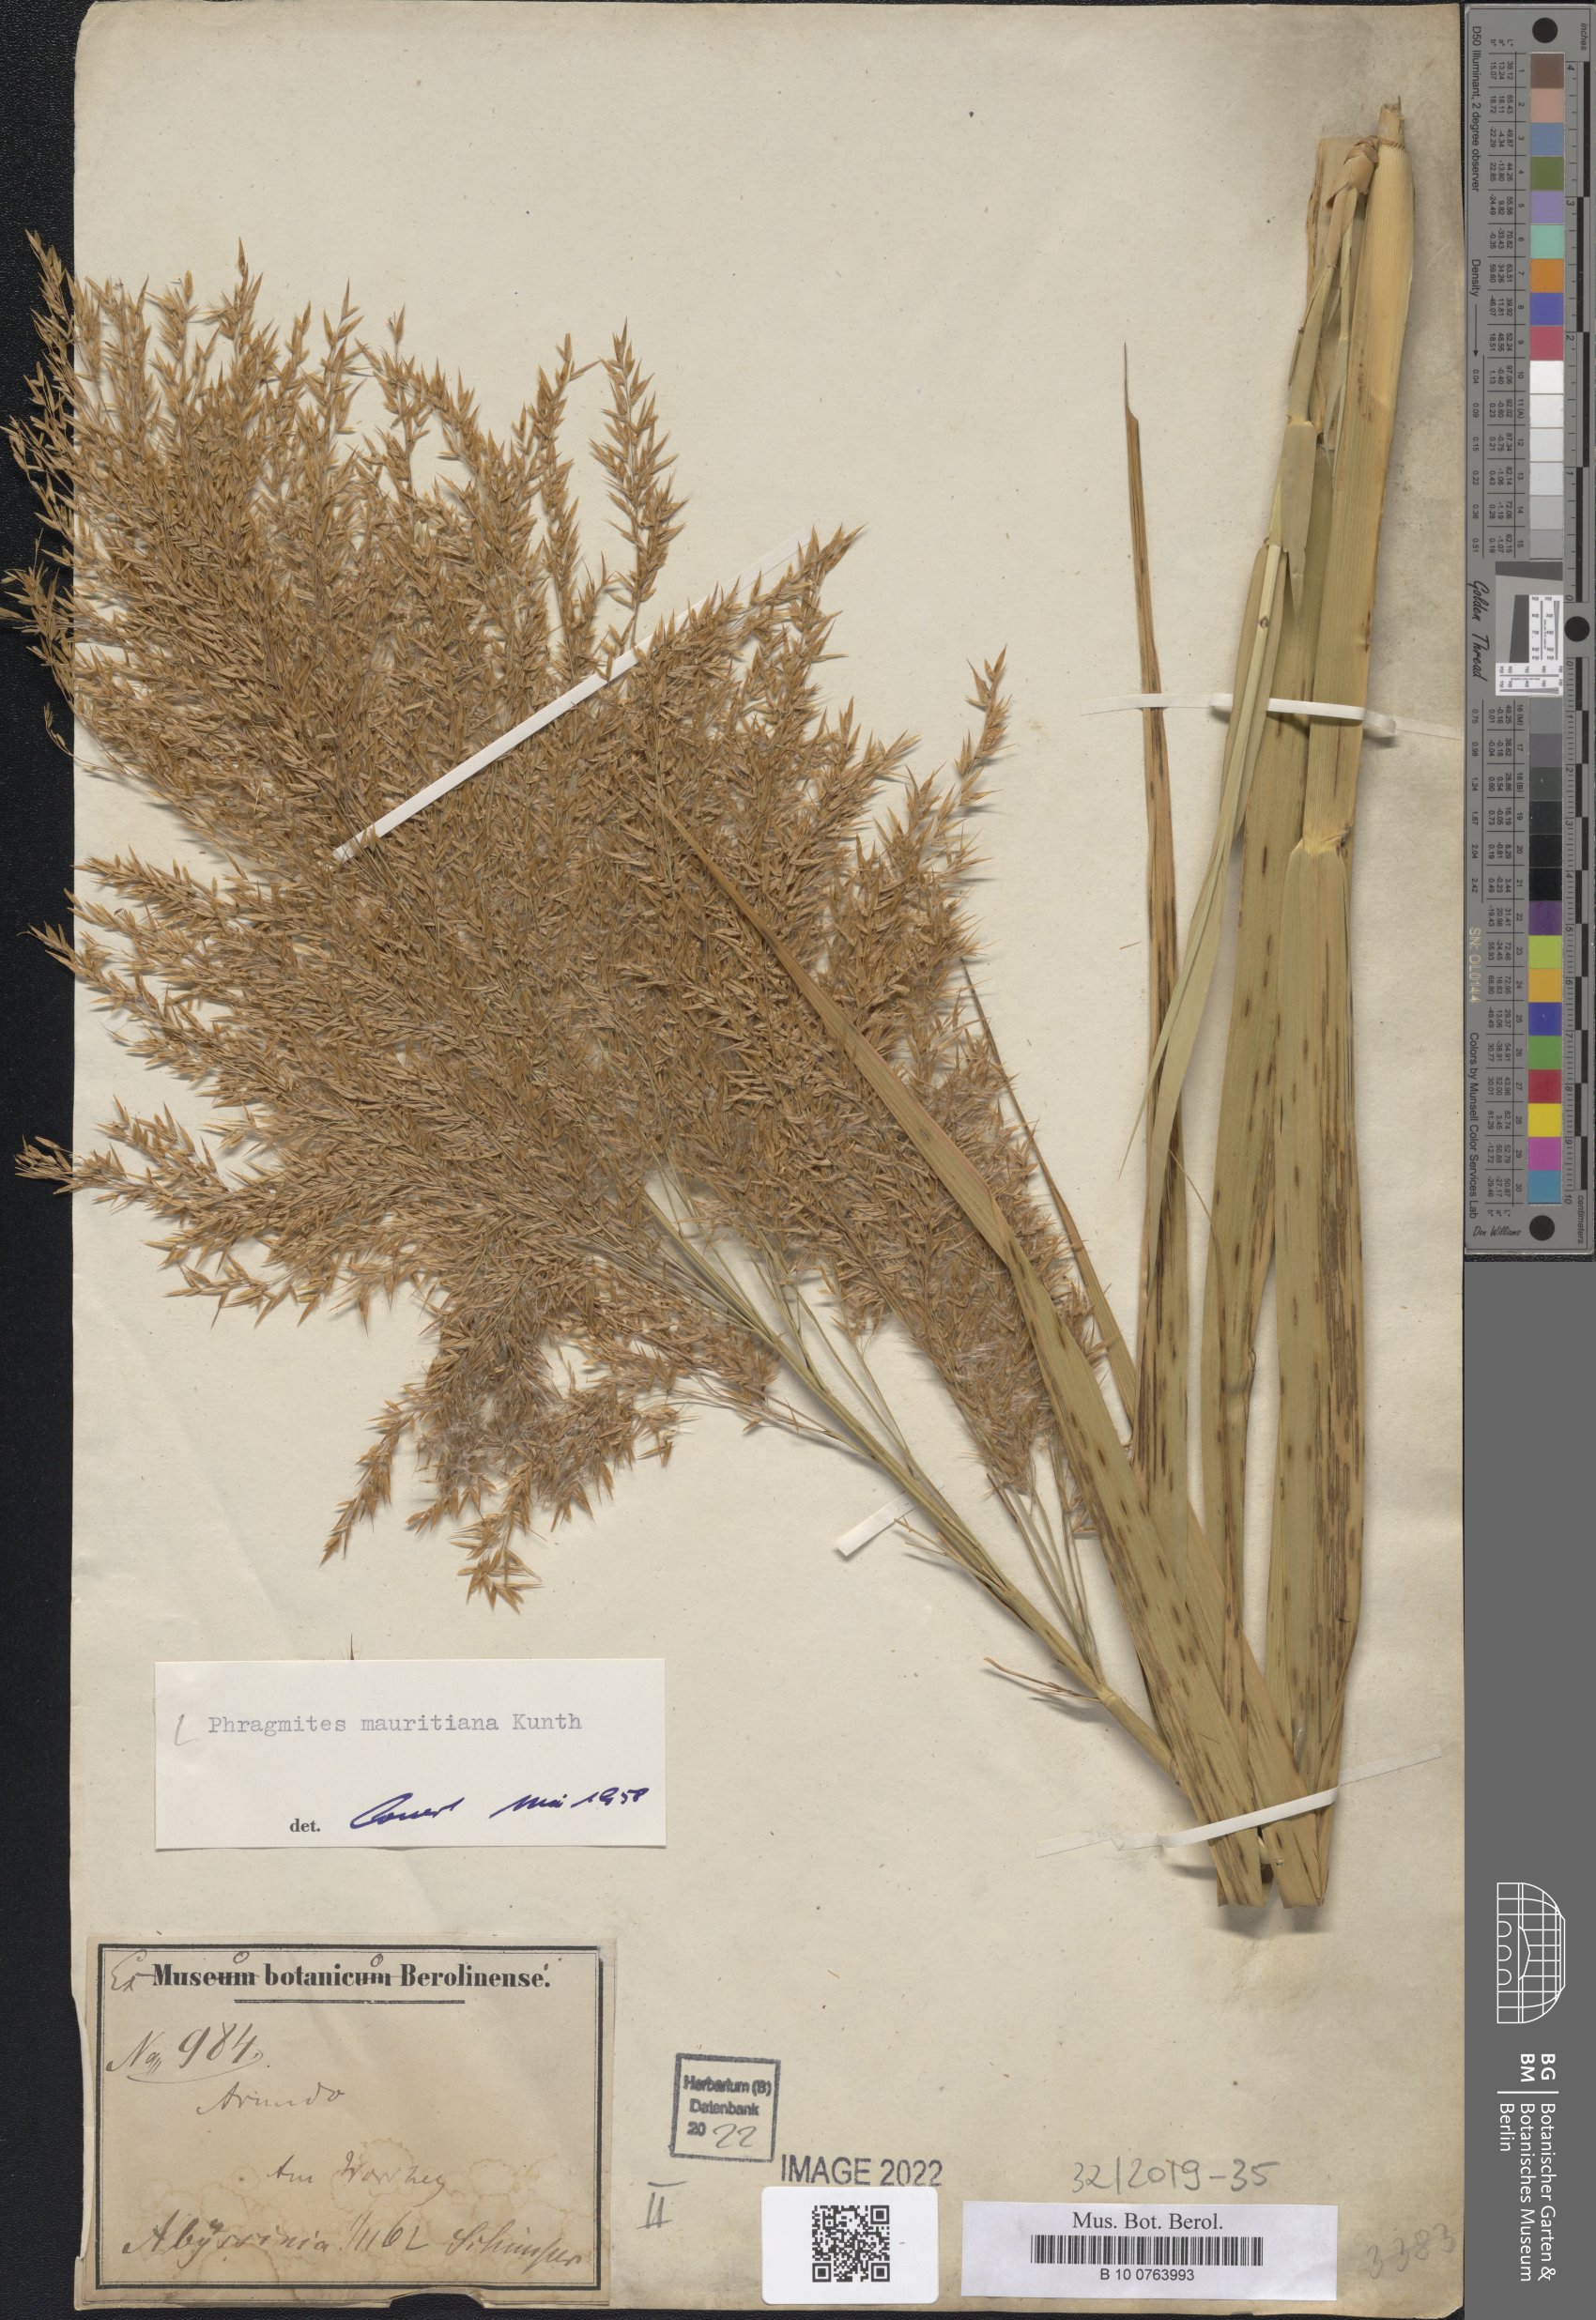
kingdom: Plantae
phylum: Tracheophyta
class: Liliopsida
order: Poales
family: Poaceae
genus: Phragmites
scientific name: Phragmites mauritianus
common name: Reed grass
